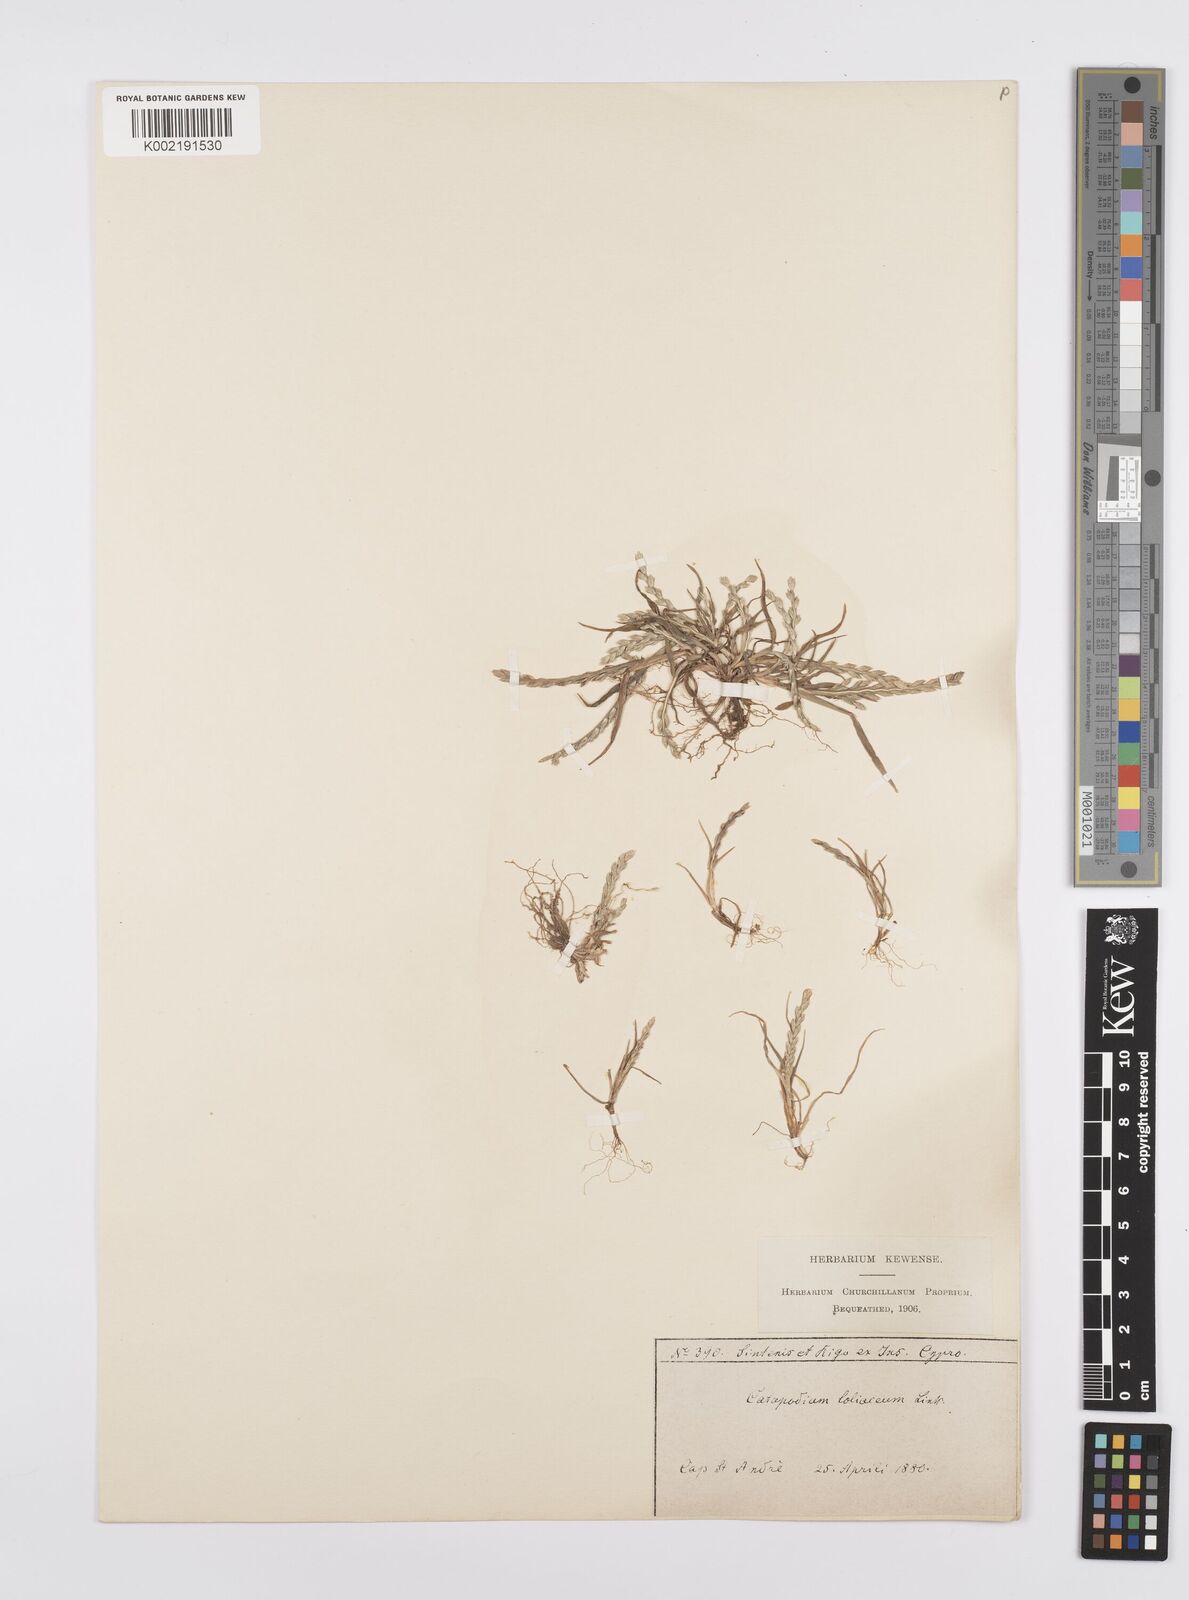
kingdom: Plantae
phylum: Tracheophyta
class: Liliopsida
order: Poales
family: Poaceae
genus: Catapodium
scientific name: Catapodium marinum
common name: Sea fern-grass
